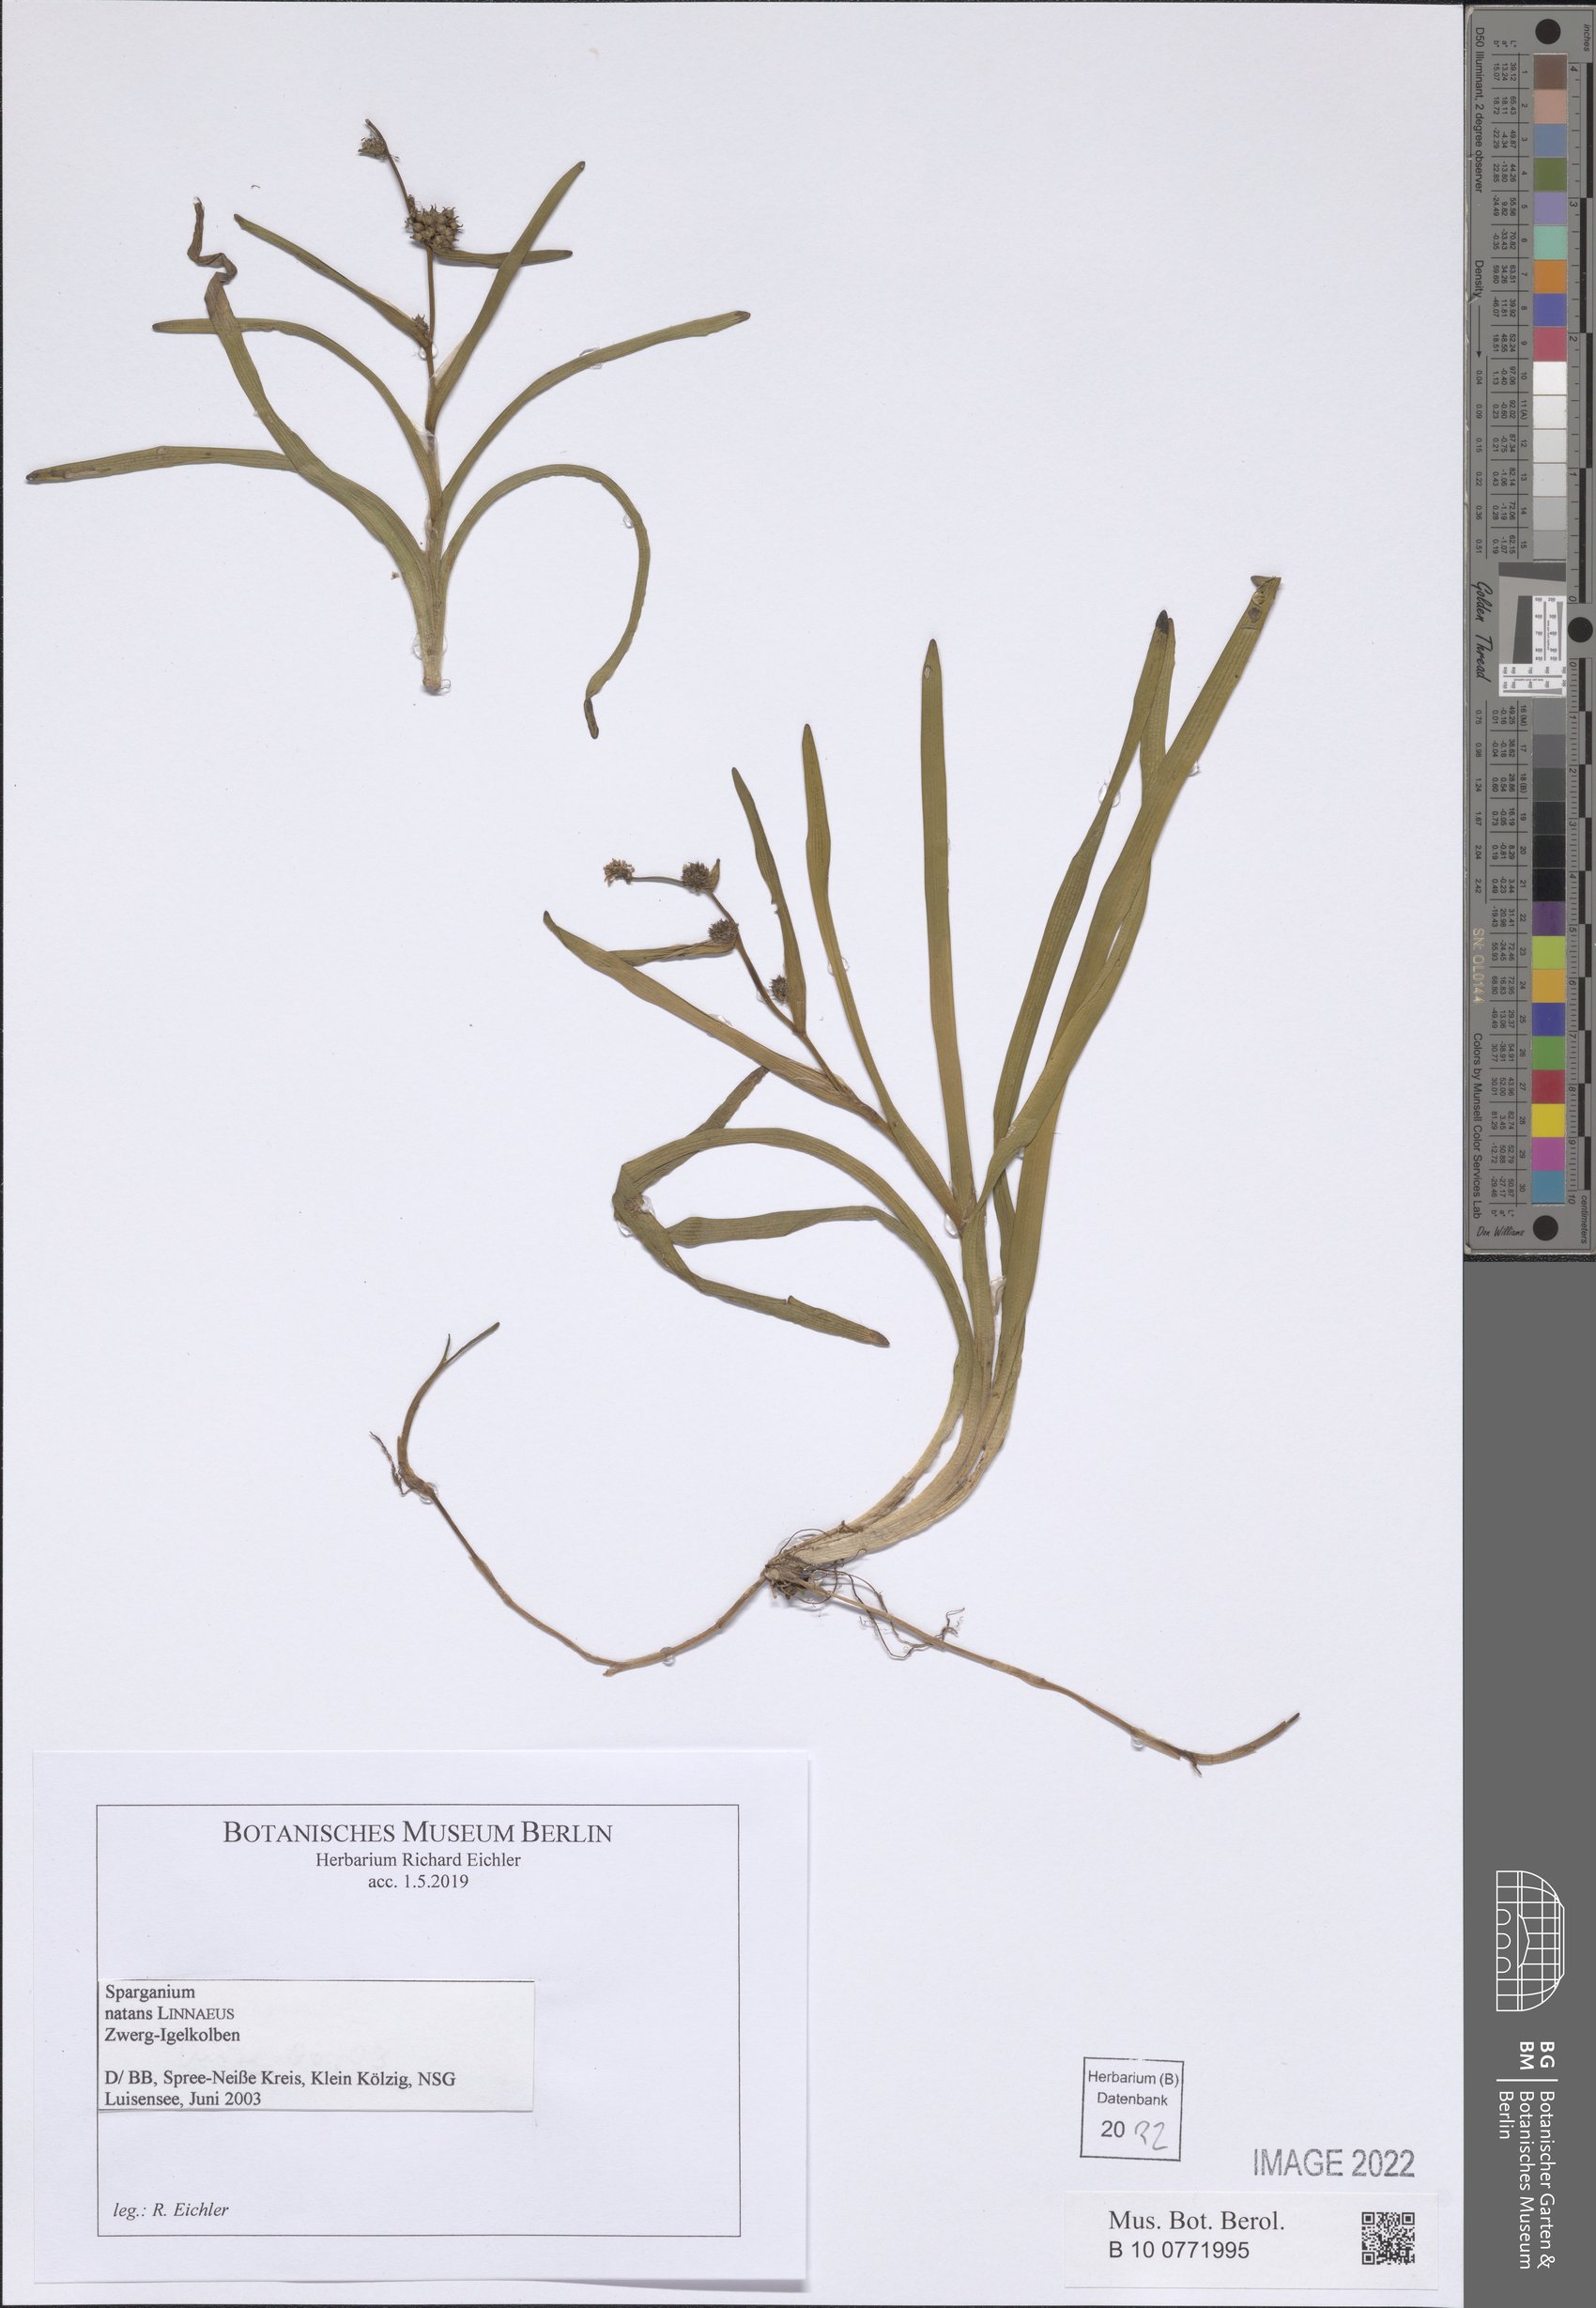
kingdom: Plantae
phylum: Tracheophyta
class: Liliopsida
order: Poales
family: Typhaceae
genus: Sparganium
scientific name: Sparganium natans
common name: Least bur-reed
